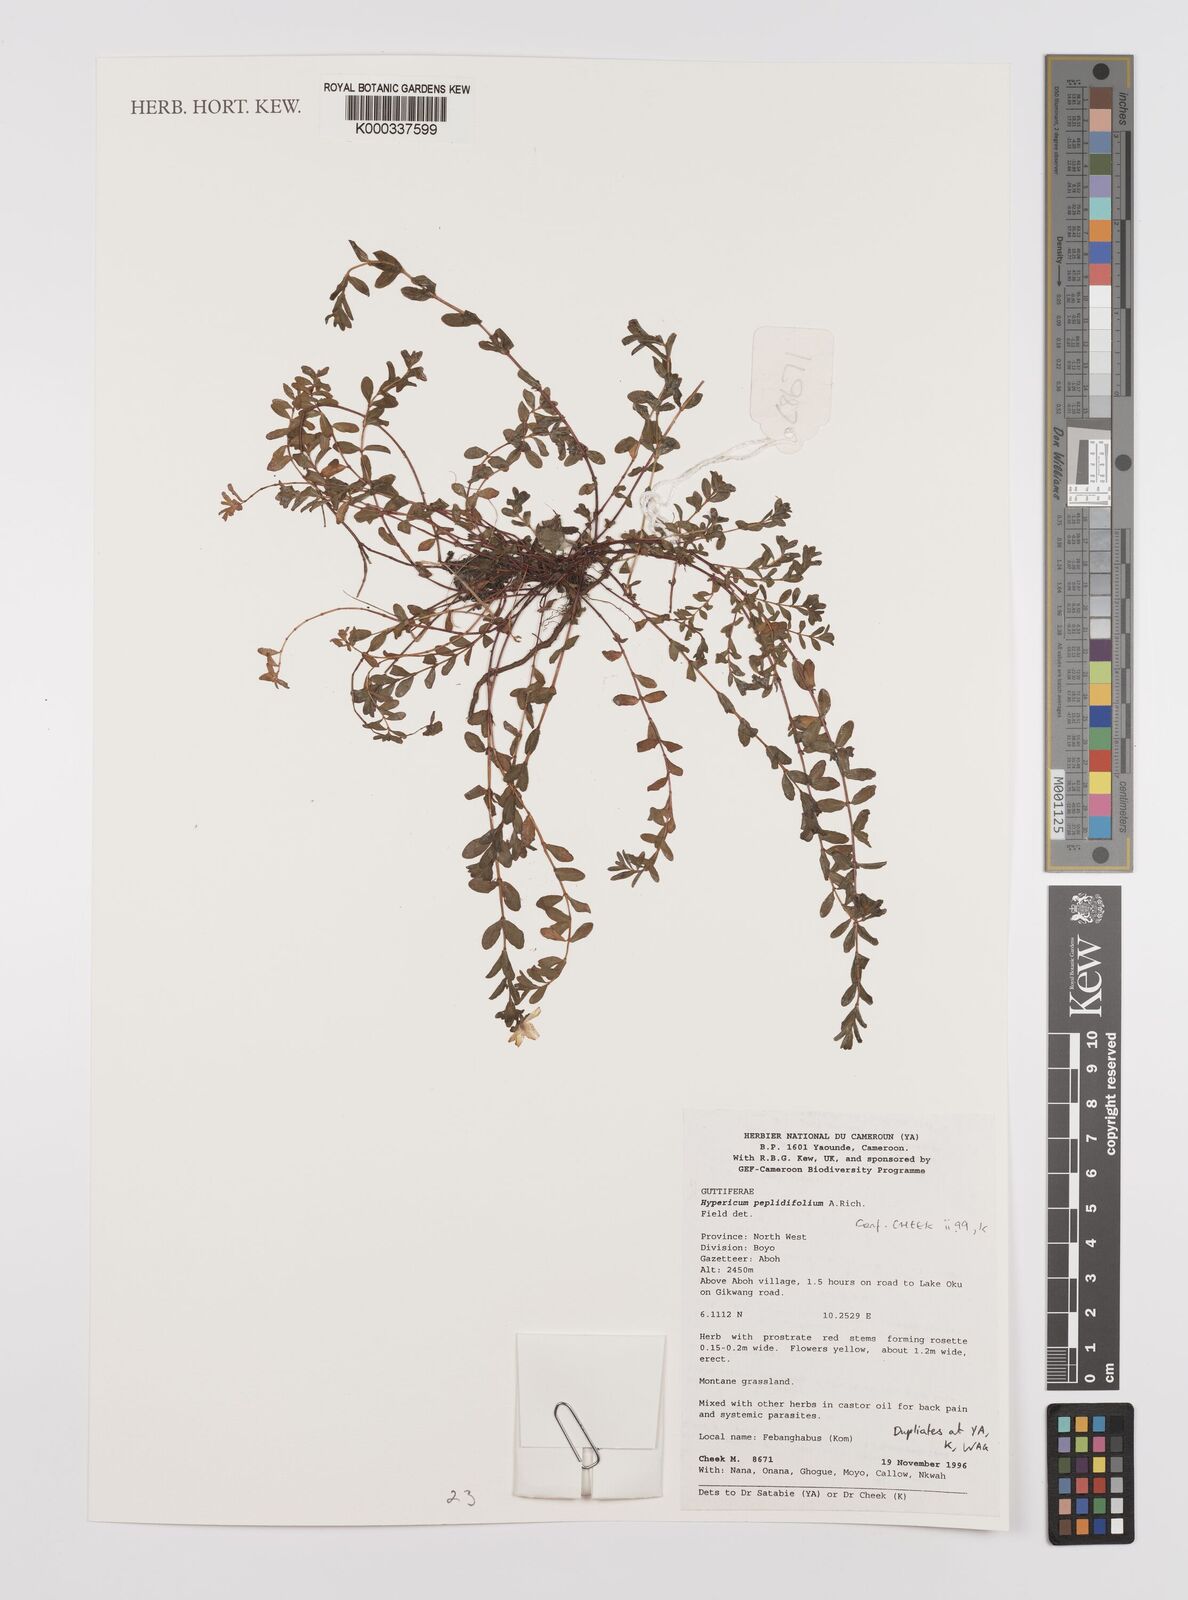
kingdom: Plantae
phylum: Tracheophyta
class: Magnoliopsida
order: Malpighiales
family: Hypericaceae
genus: Hypericum
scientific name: Hypericum peplidifolium
